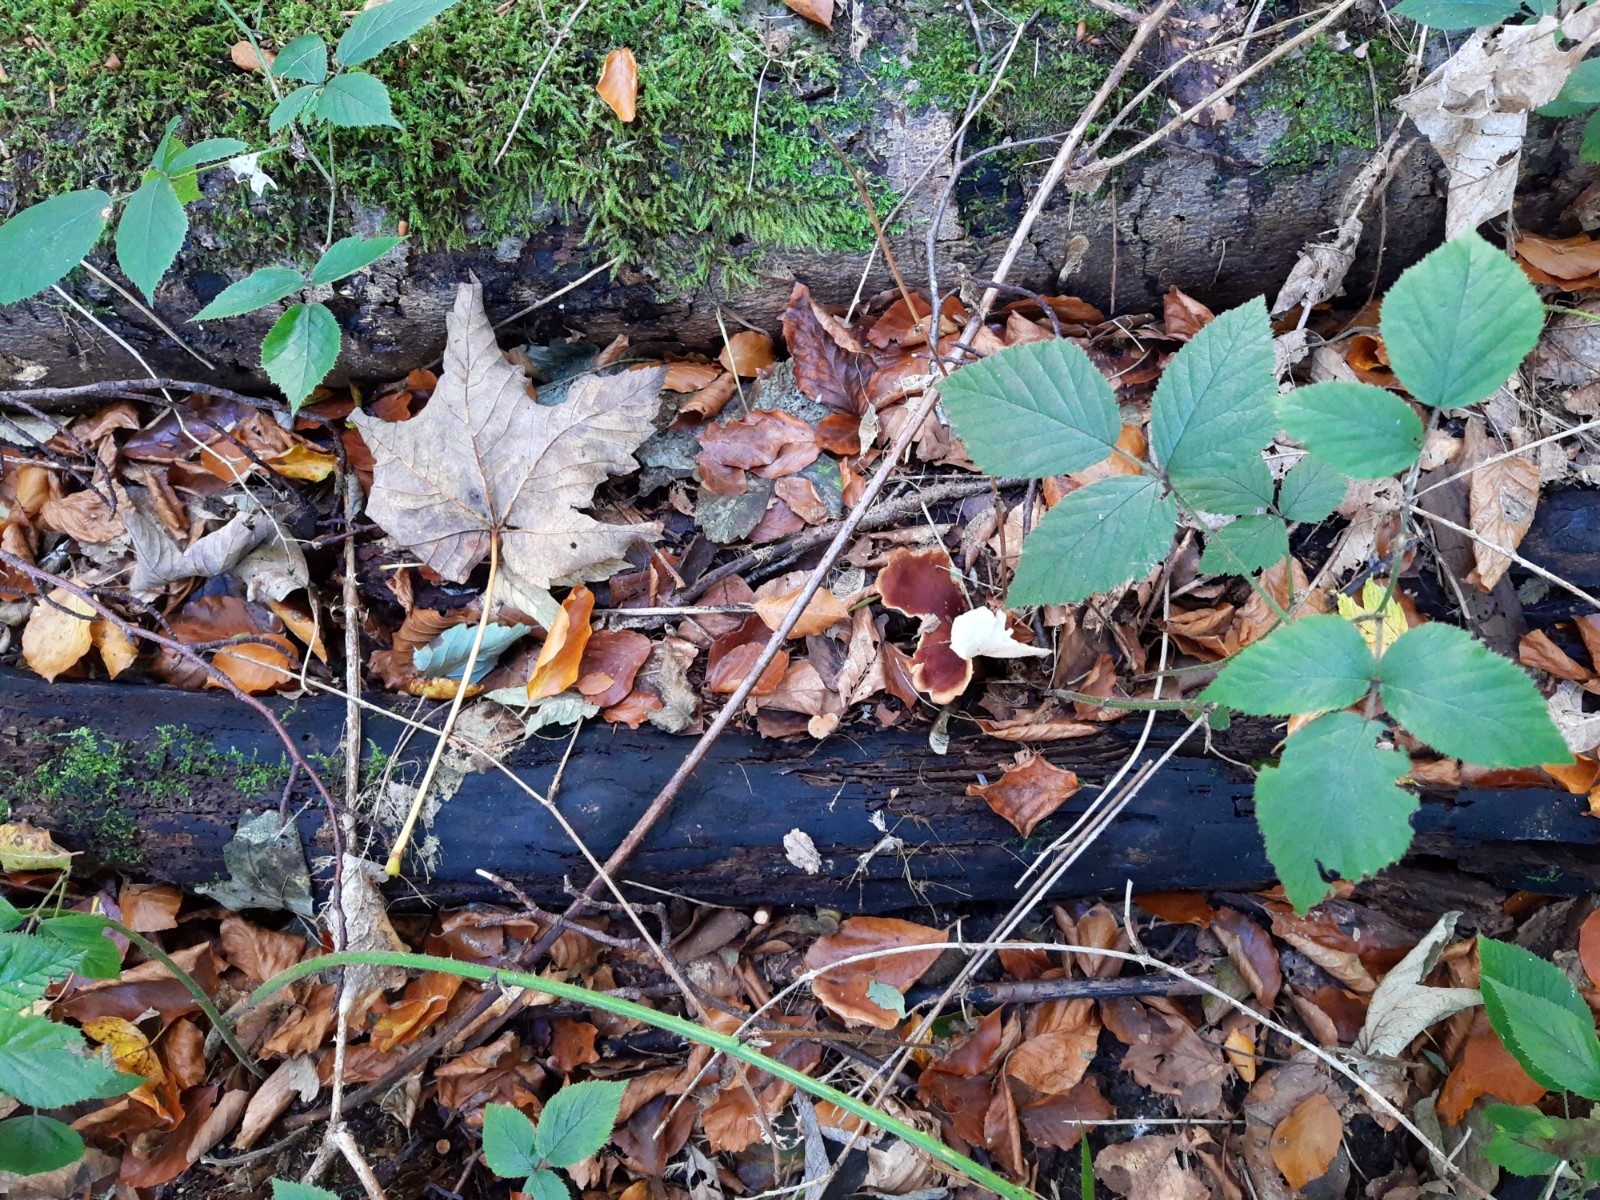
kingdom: Fungi
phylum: Basidiomycota
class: Agaricomycetes
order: Polyporales
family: Polyporaceae
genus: Picipes
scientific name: Picipes badius
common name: kastaniebrun stilkporesvamp
